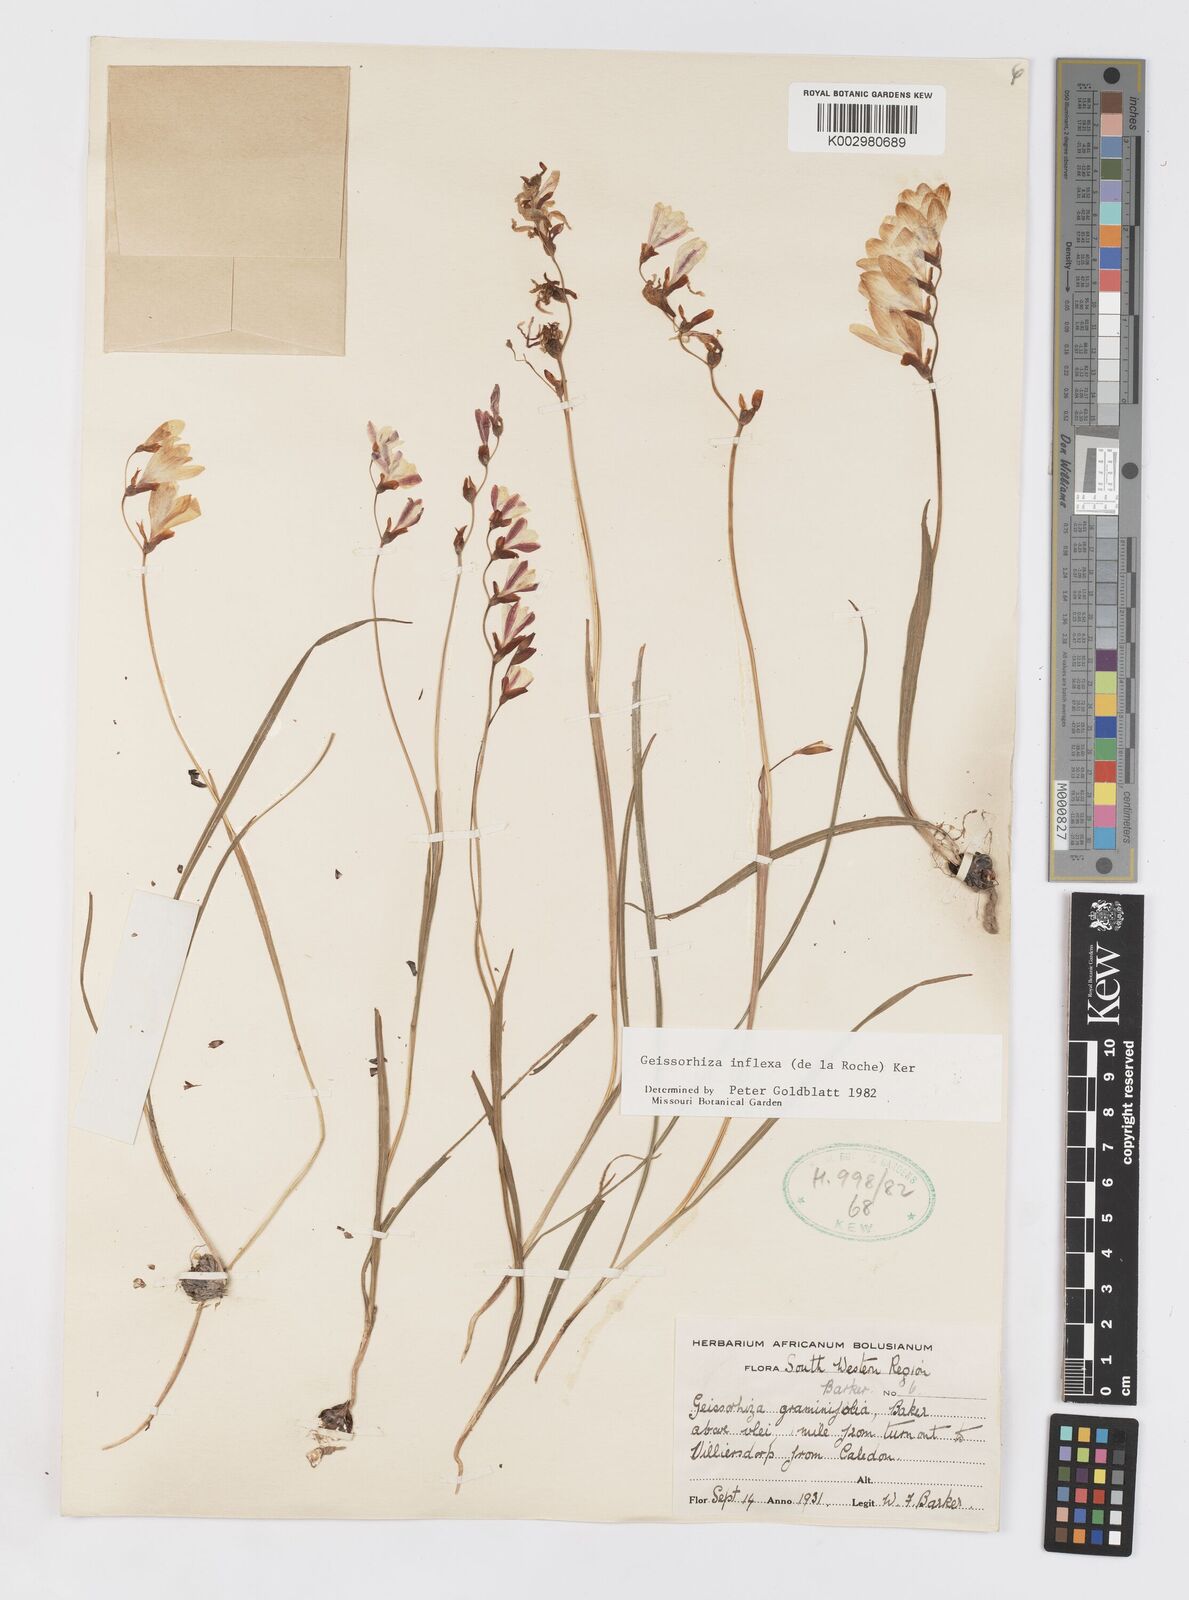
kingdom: Plantae
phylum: Tracheophyta
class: Liliopsida
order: Asparagales
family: Iridaceae
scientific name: Iridaceae
